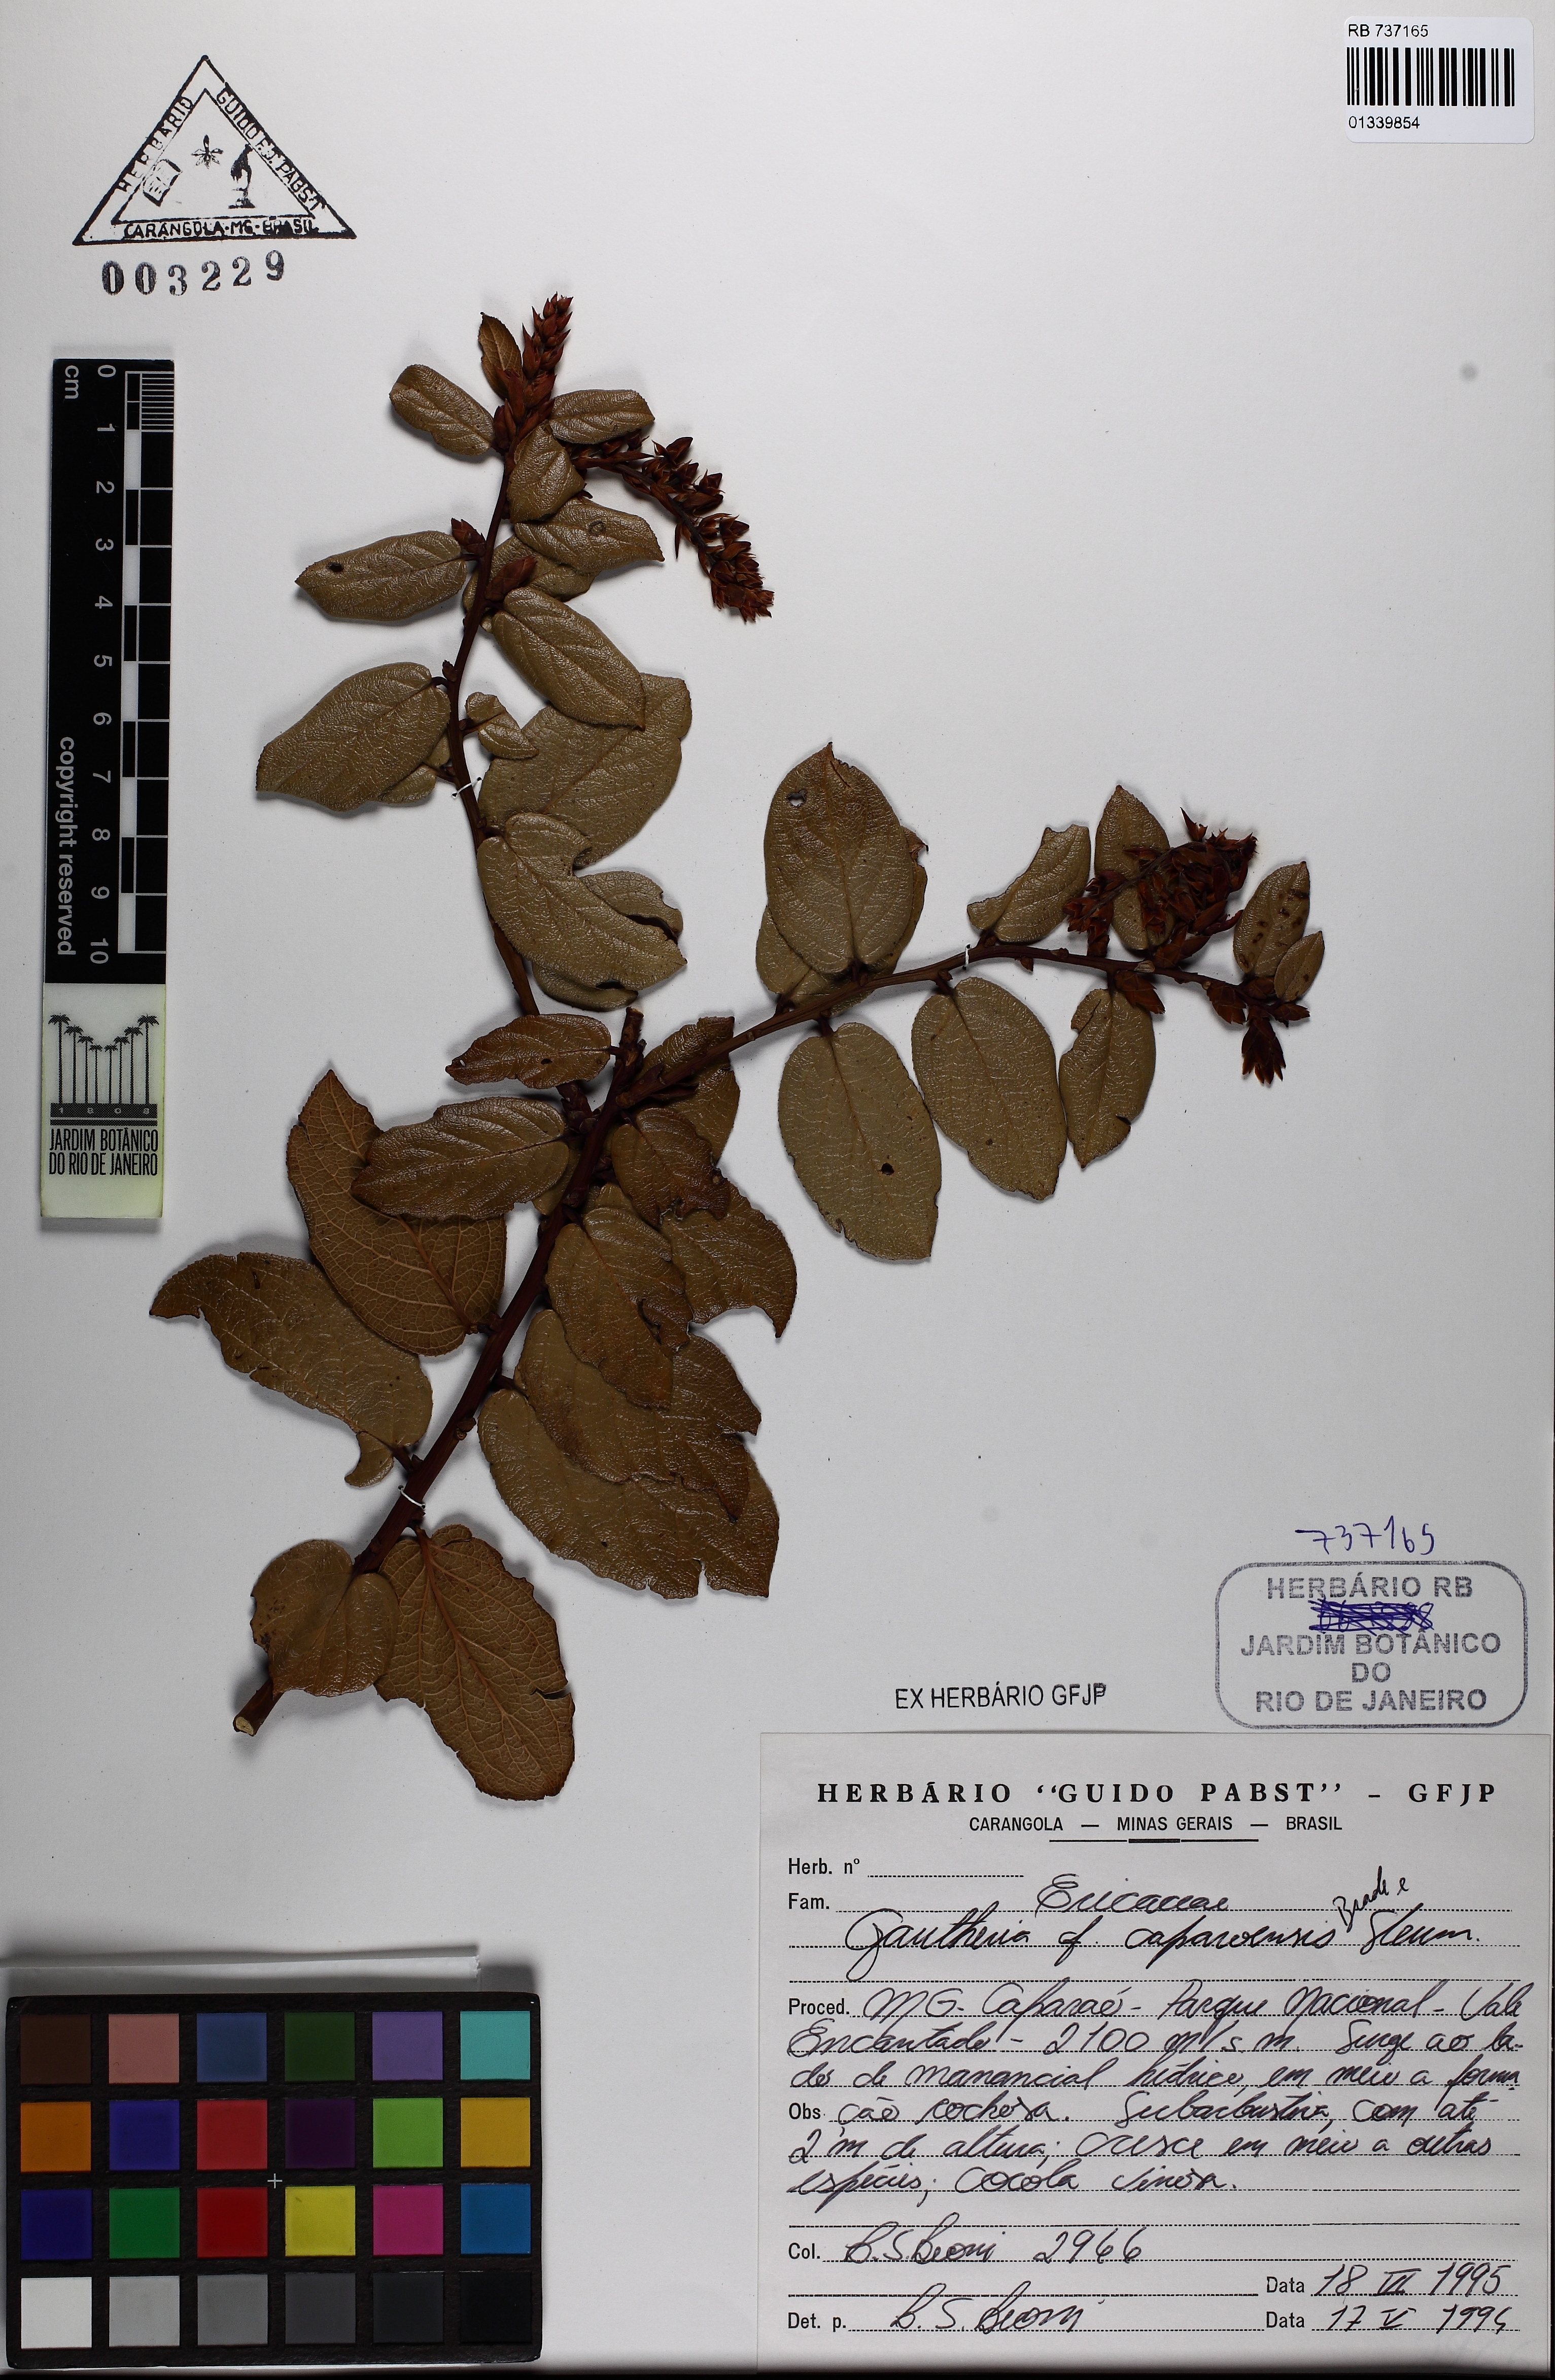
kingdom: Plantae
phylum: Tracheophyta
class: Magnoliopsida
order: Ericales
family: Ericaceae
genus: Gaultheria
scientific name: Gaultheria serrata
